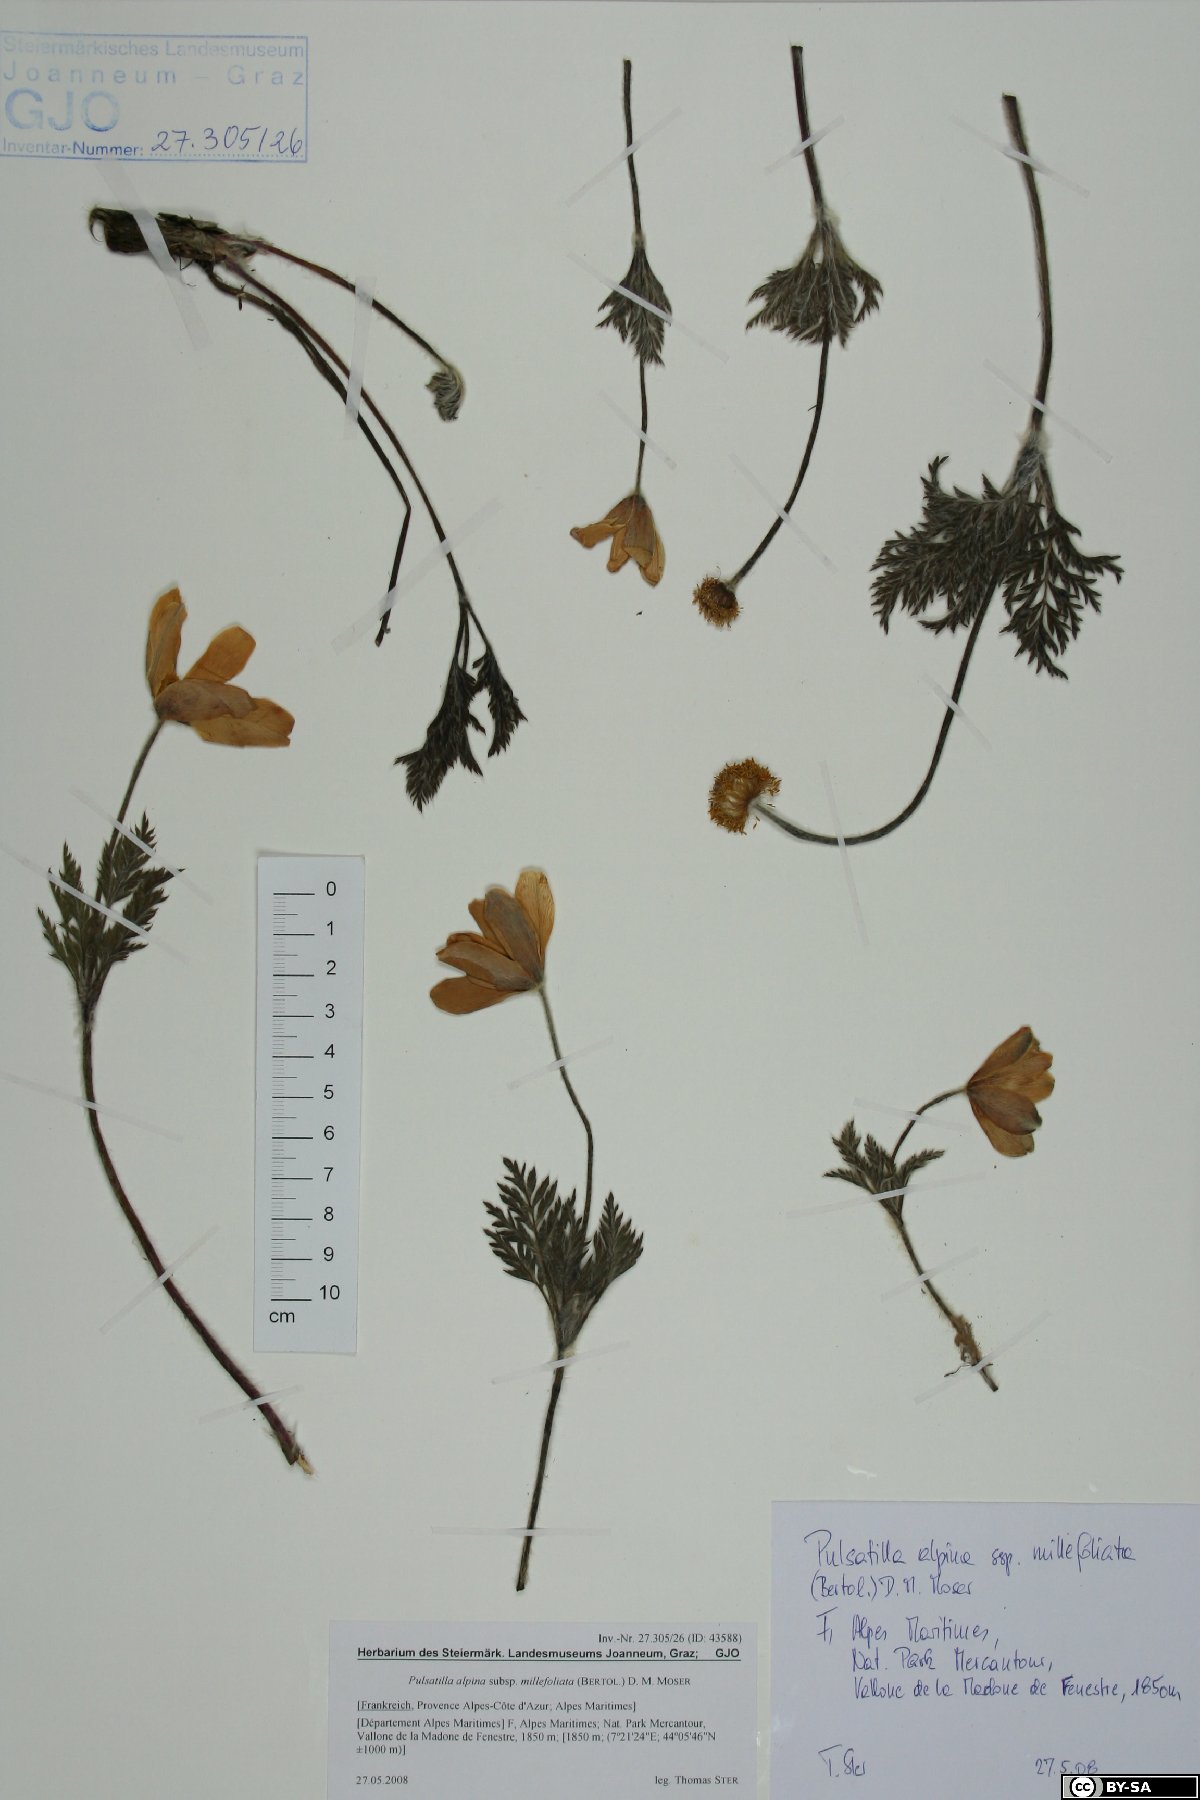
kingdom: Plantae
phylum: Tracheophyta
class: Magnoliopsida
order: Ranunculales
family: Ranunculaceae
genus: Pulsatilla
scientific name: Pulsatilla alpina
